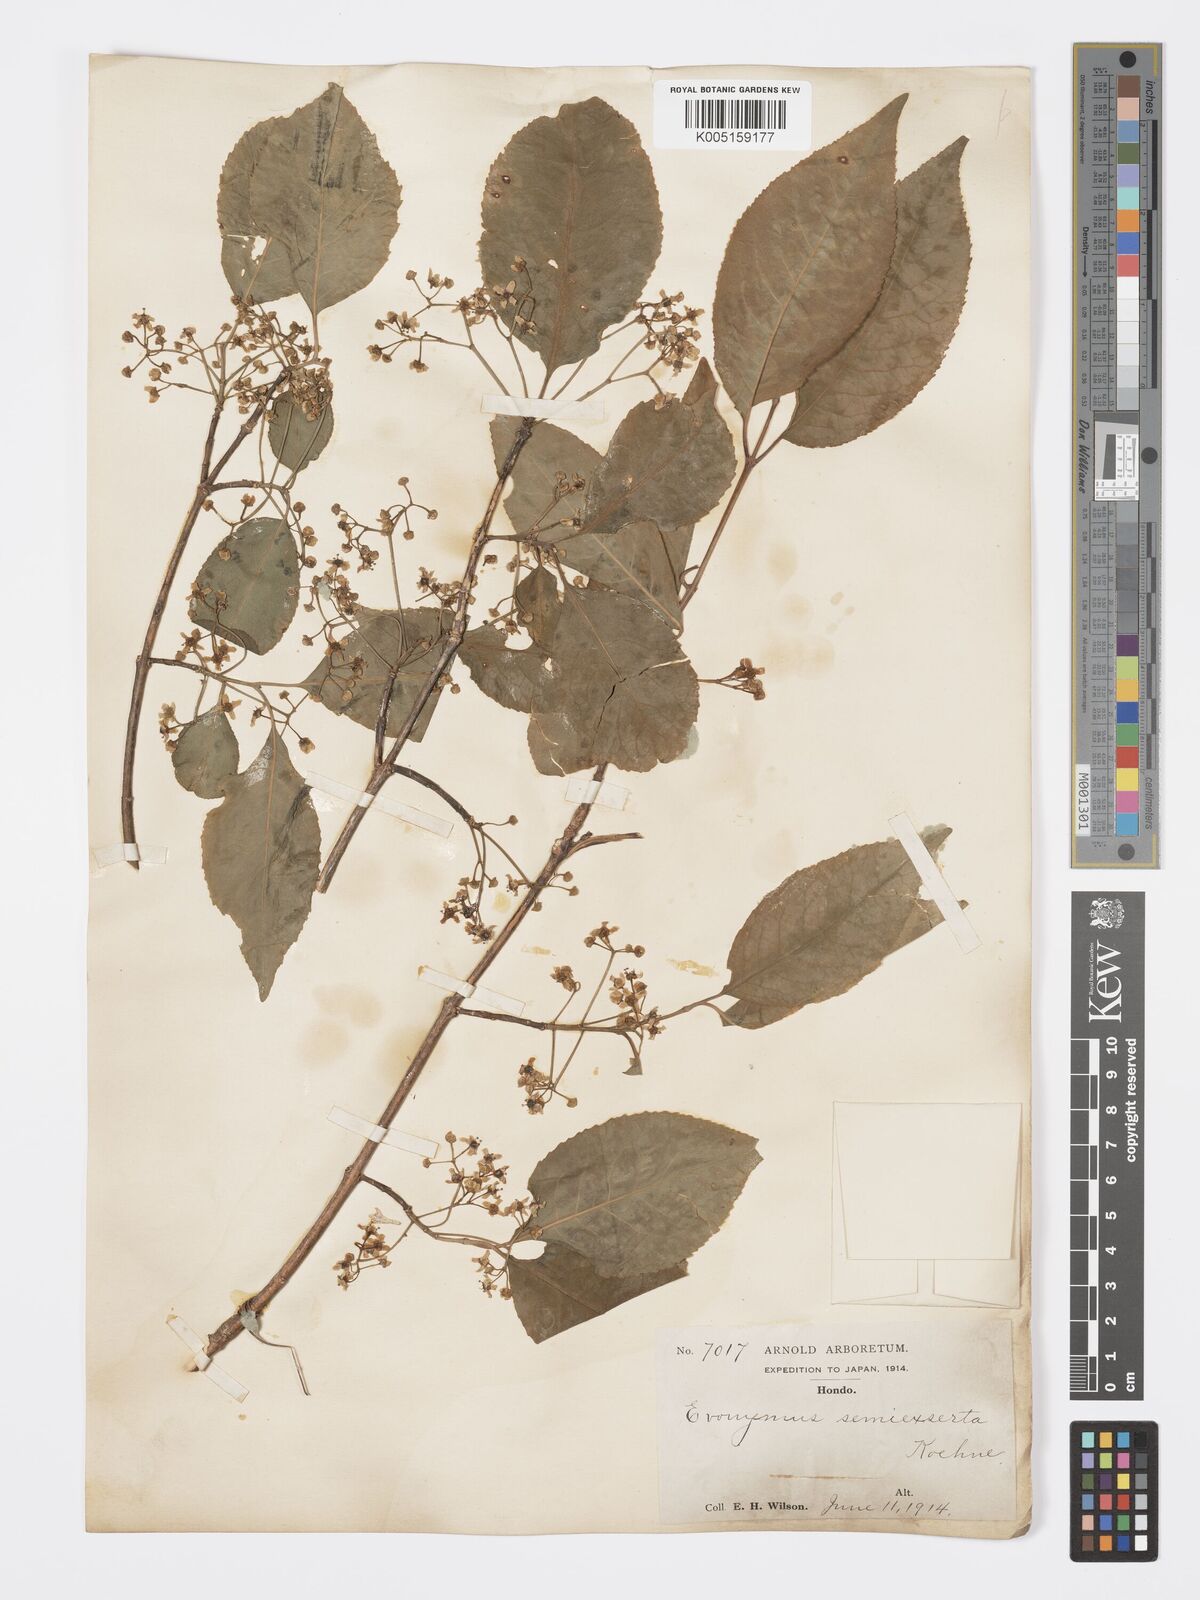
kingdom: Plantae
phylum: Tracheophyta
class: Magnoliopsida
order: Celastrales
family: Celastraceae
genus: Euonymus
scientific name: Euonymus hamiltonianus
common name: Hamilton's spindletree
